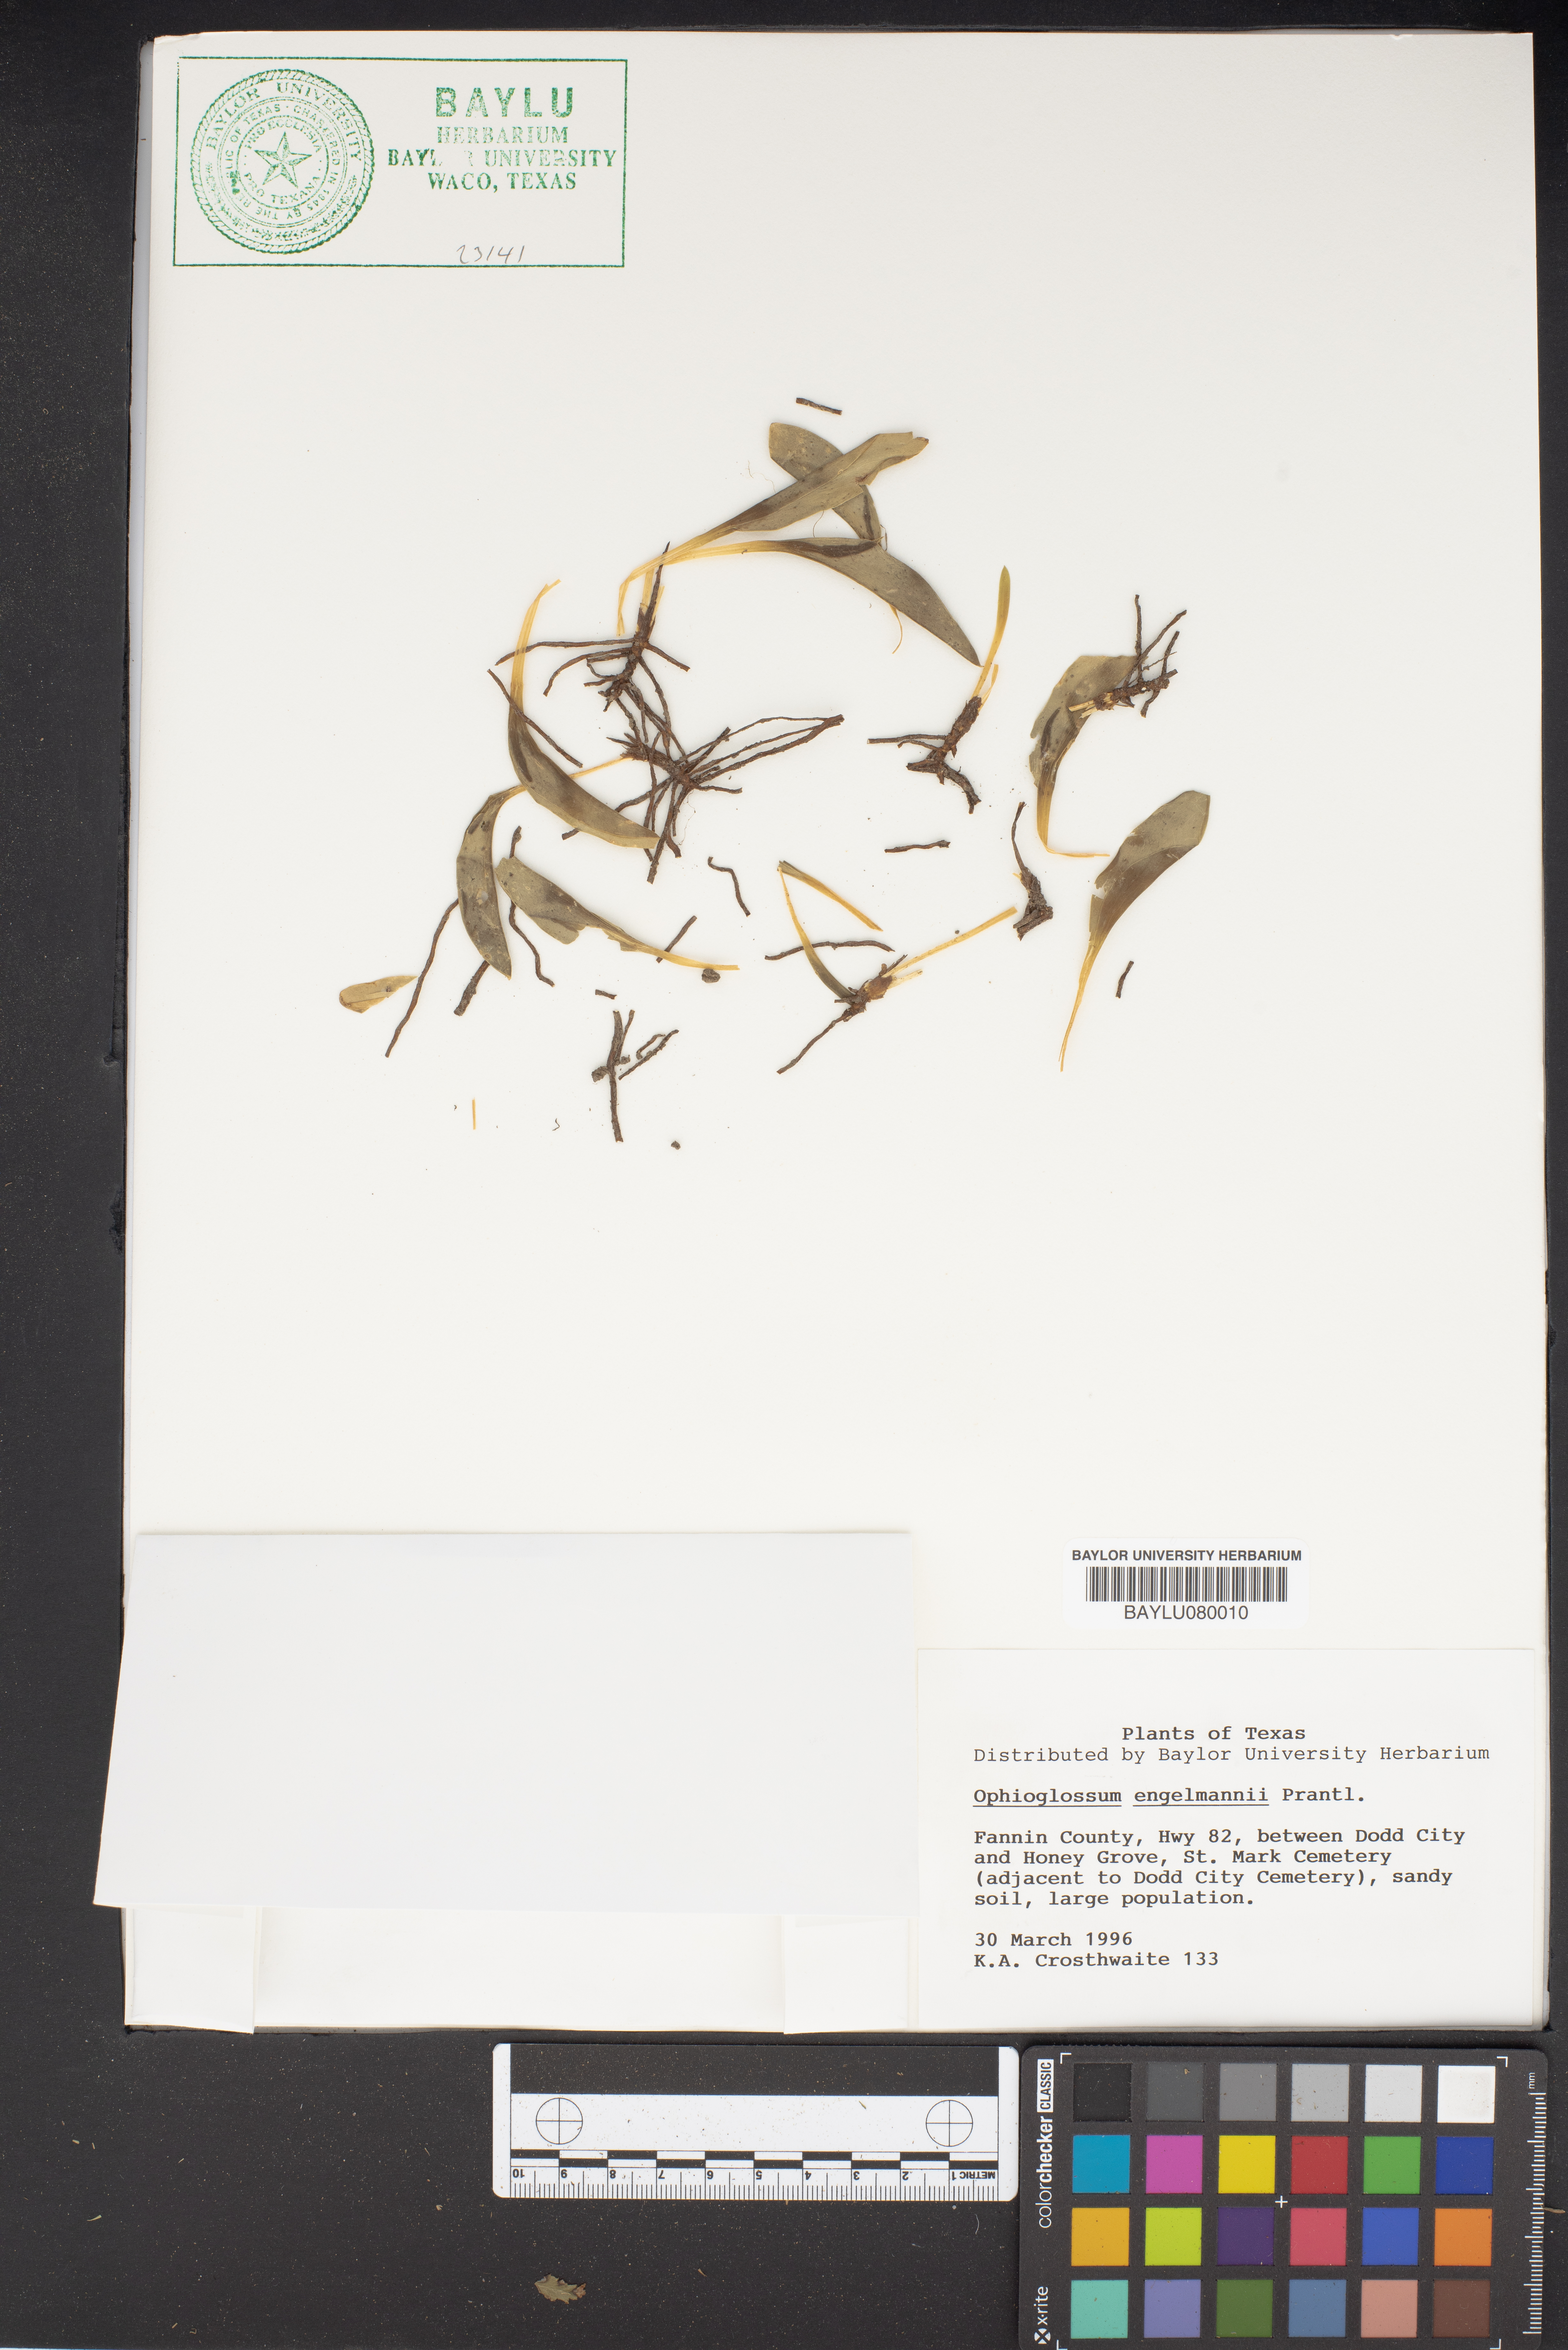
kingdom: Plantae
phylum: Tracheophyta
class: Polypodiopsida
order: Ophioglossales
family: Ophioglossaceae
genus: Ophioglossum
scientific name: Ophioglossum engelmannii
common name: Limestone adder's-tongue
